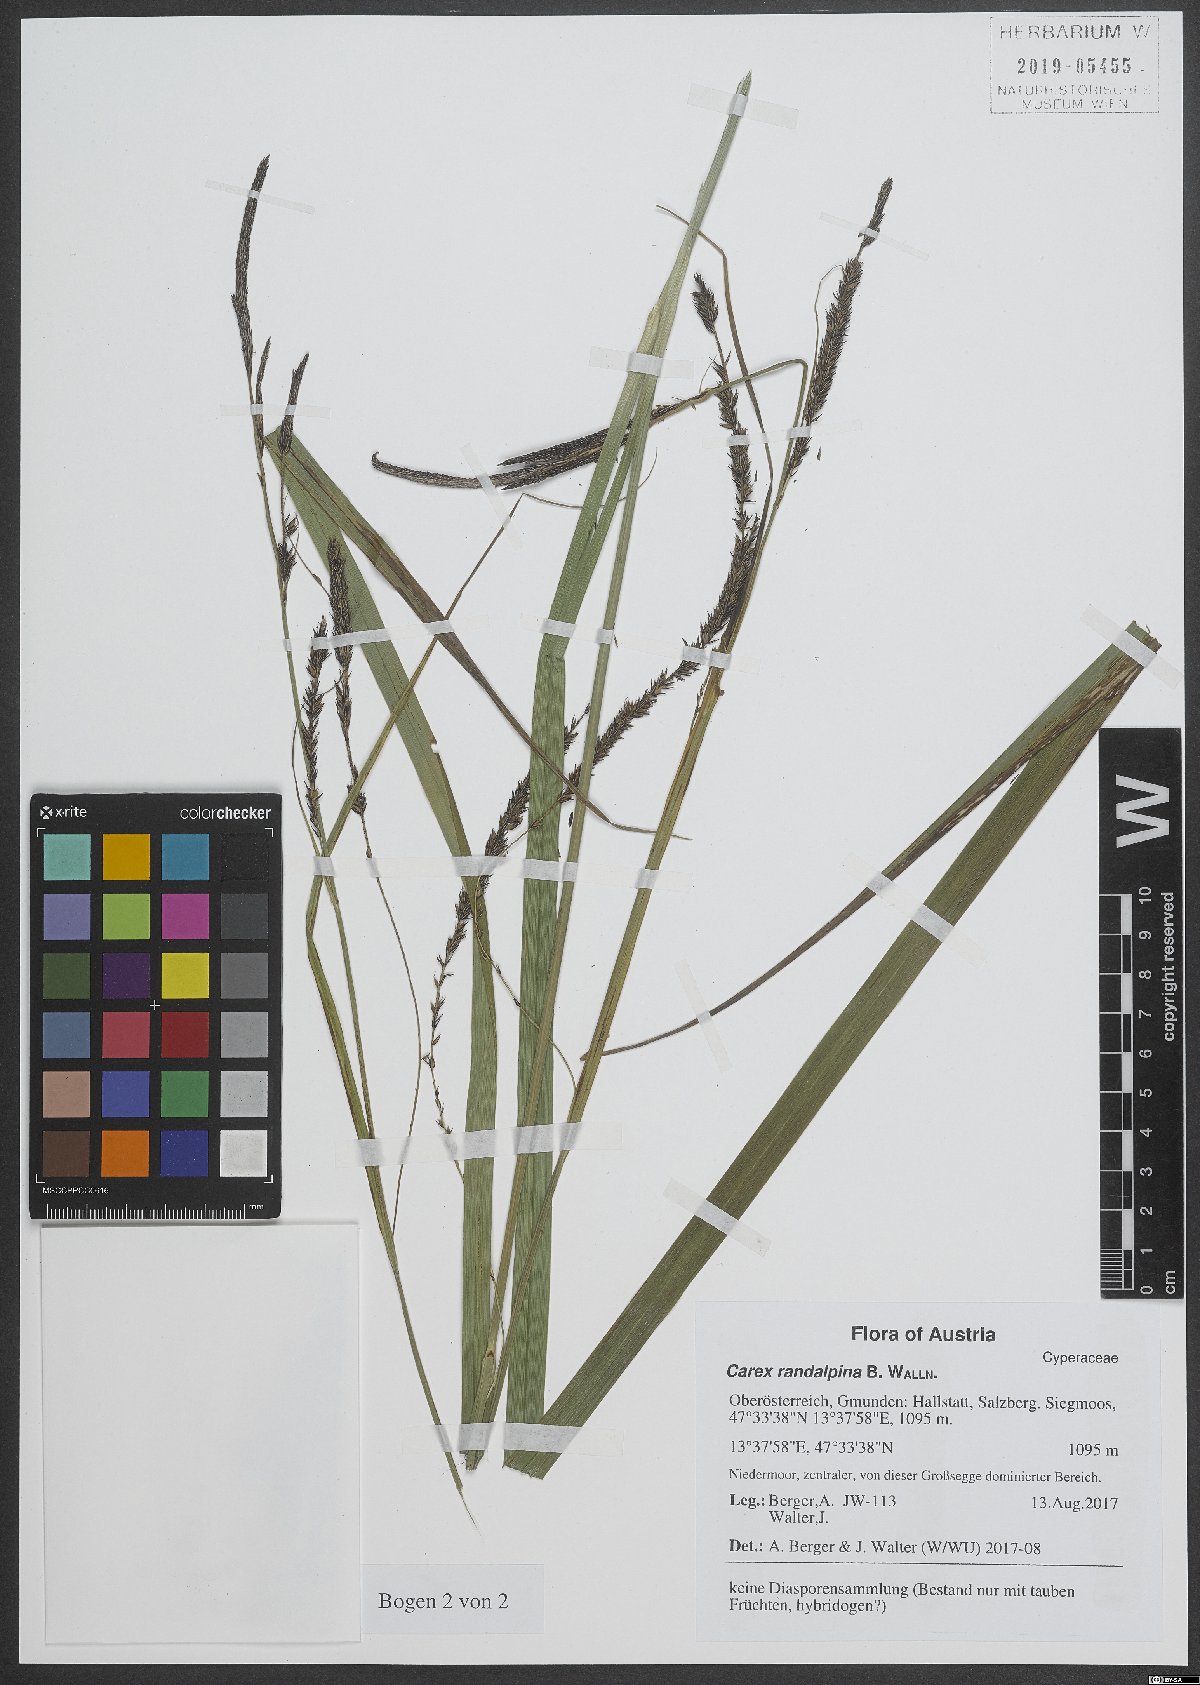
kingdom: Plantae
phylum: Tracheophyta
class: Liliopsida
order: Poales
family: Cyperaceae
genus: Carex
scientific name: Carex randalpina
